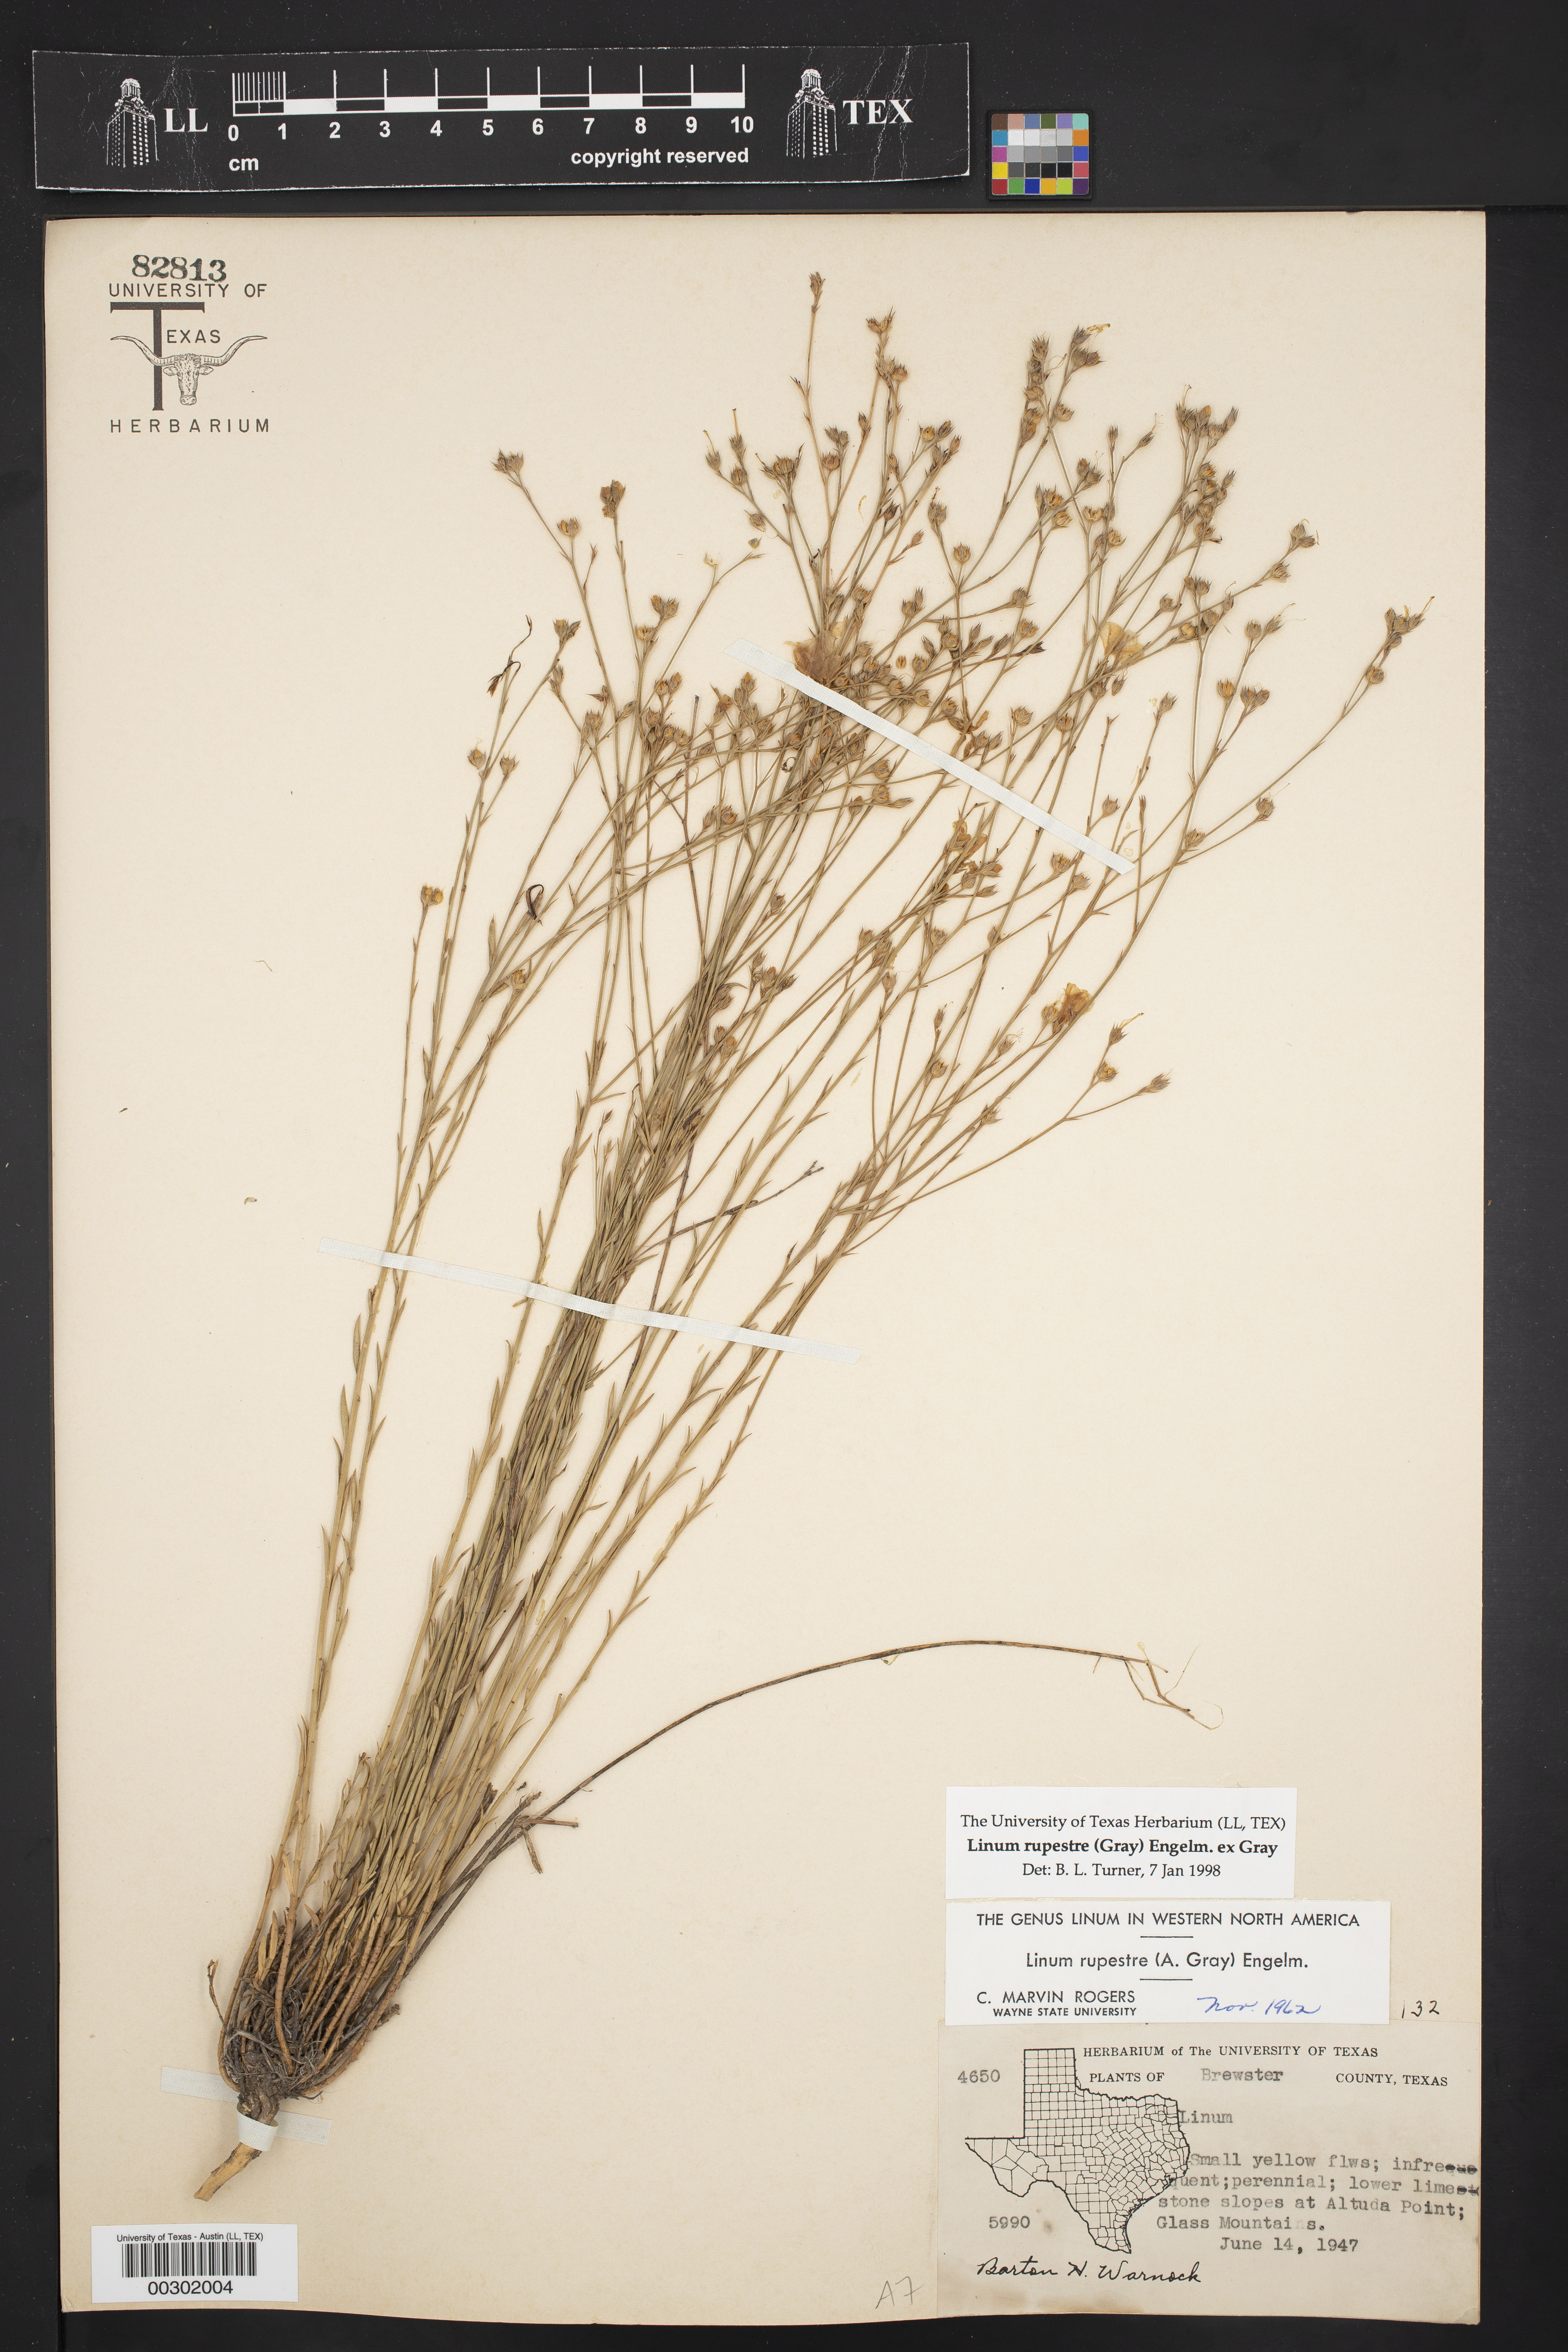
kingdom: Plantae
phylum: Tracheophyta
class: Magnoliopsida
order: Malpighiales
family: Linaceae
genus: Linum
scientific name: Linum rupestre
